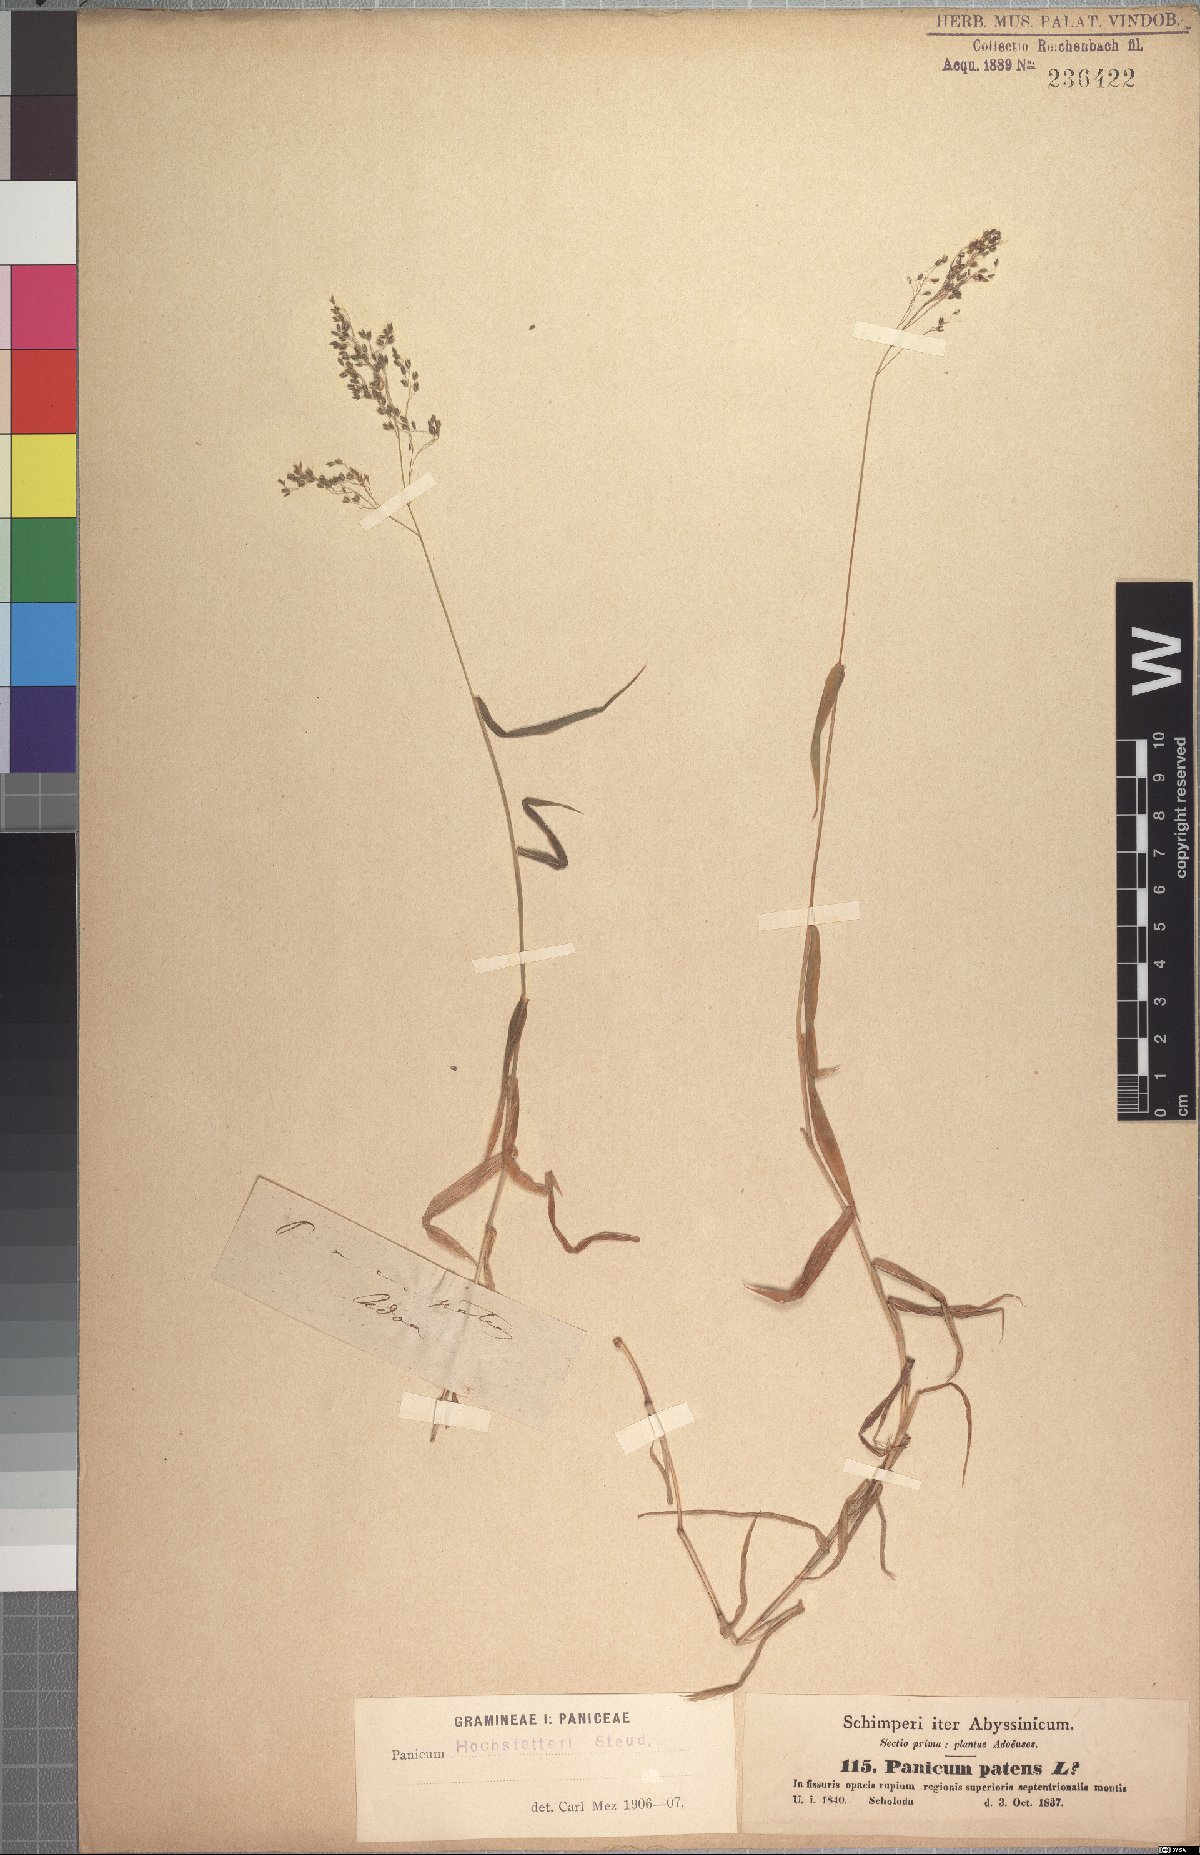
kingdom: Plantae
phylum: Tracheophyta
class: Liliopsida
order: Poales
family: Poaceae
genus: Panicum
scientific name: Panicum hochstetteri
